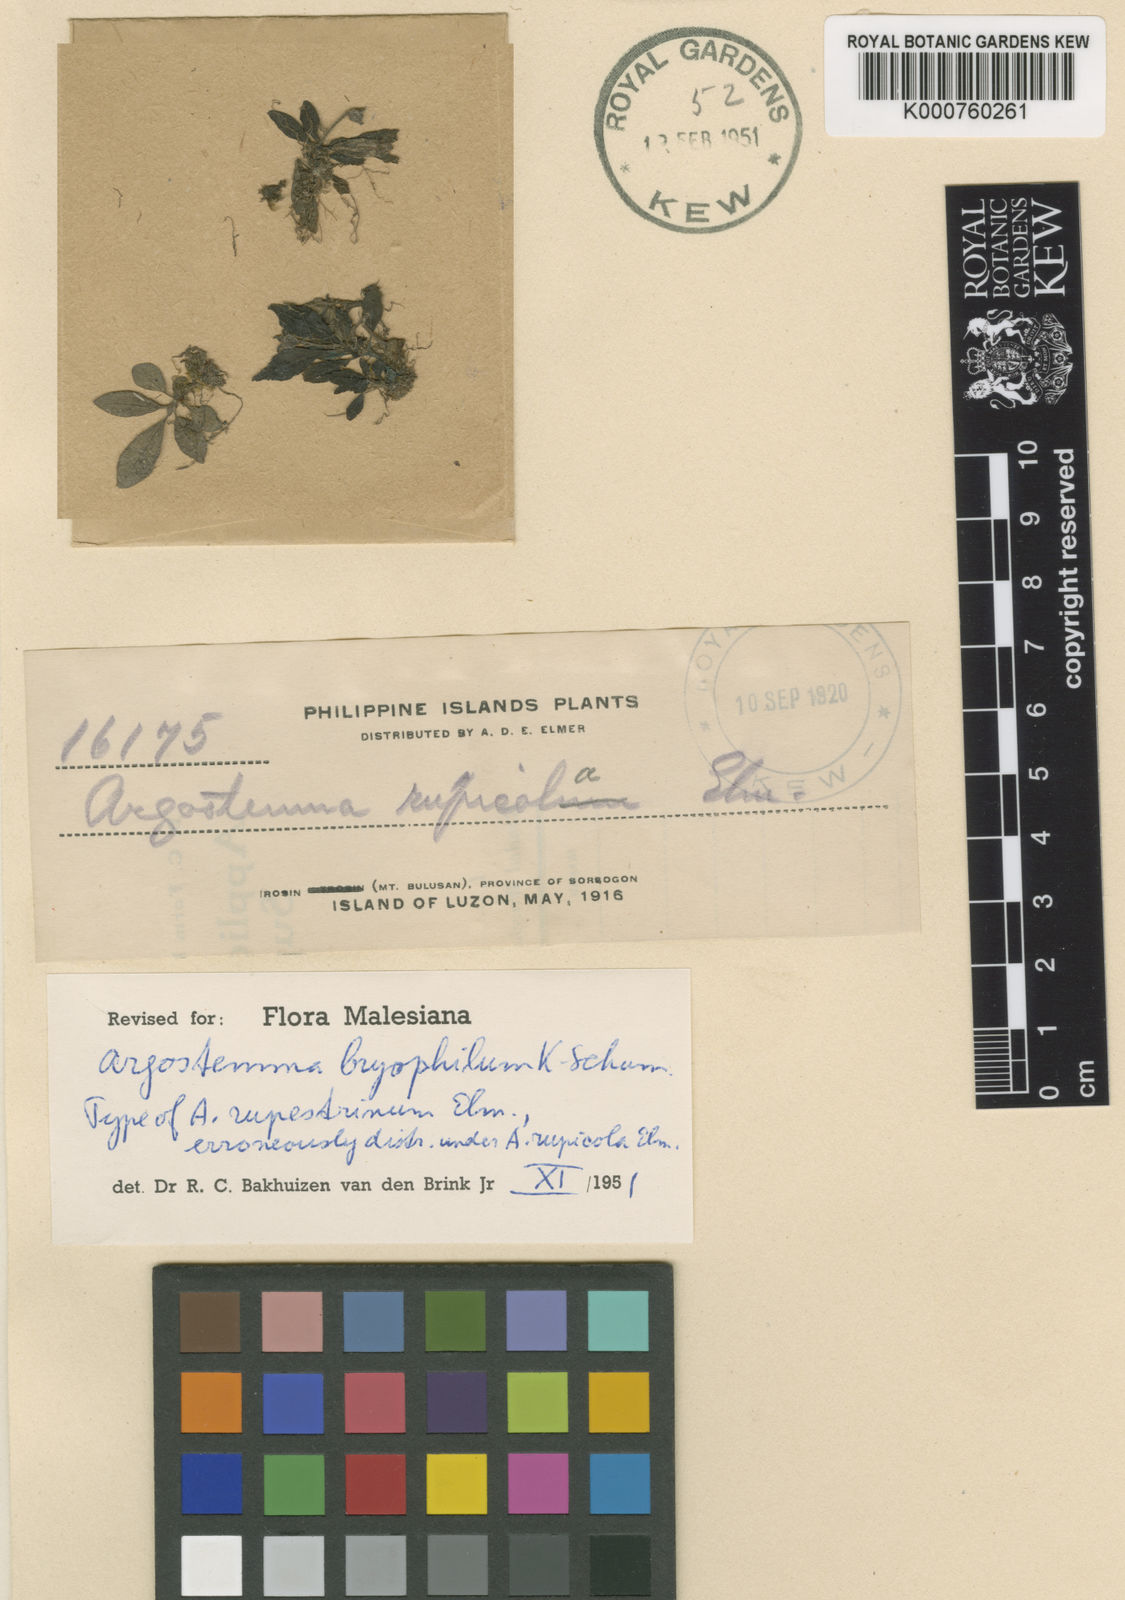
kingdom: Plantae
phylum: Tracheophyta
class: Magnoliopsida
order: Gentianales
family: Rubiaceae
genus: Argostemma
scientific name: Argostemma bryophilum
